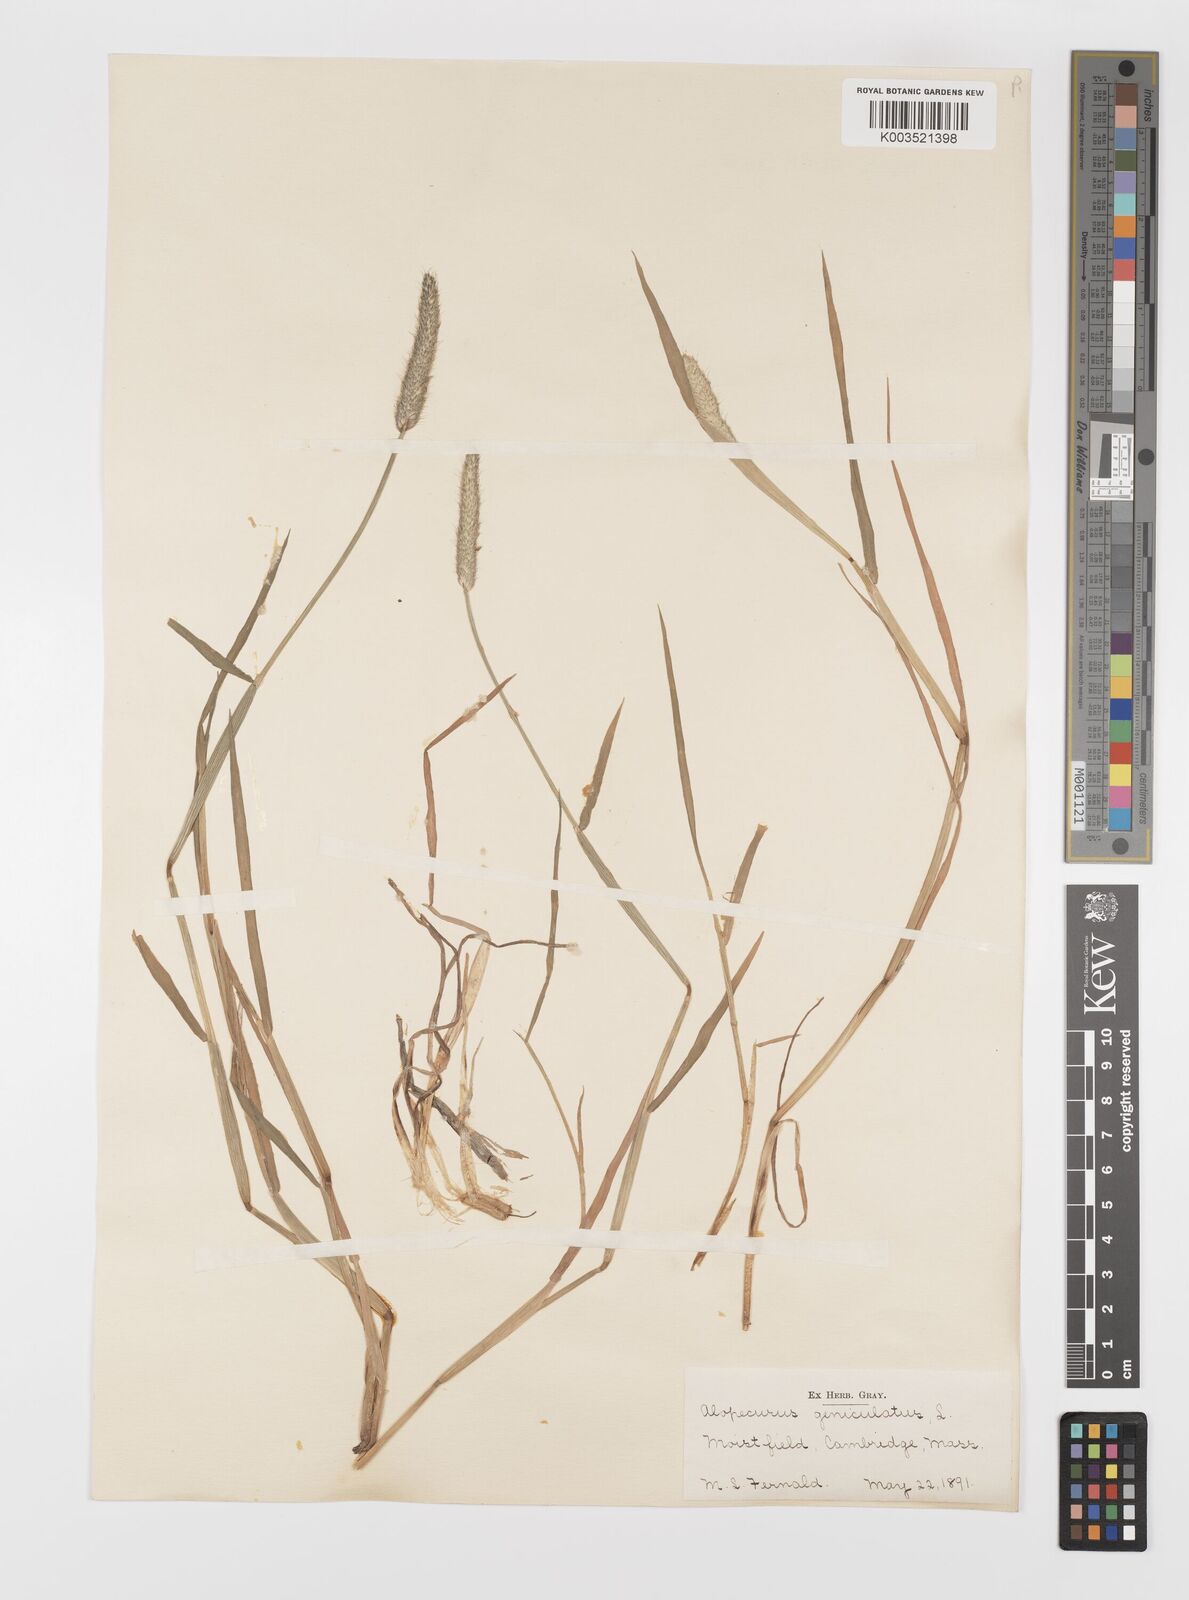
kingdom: Plantae
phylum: Tracheophyta
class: Liliopsida
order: Poales
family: Poaceae
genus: Alopecurus
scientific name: Alopecurus geniculatus
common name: Water foxtail
